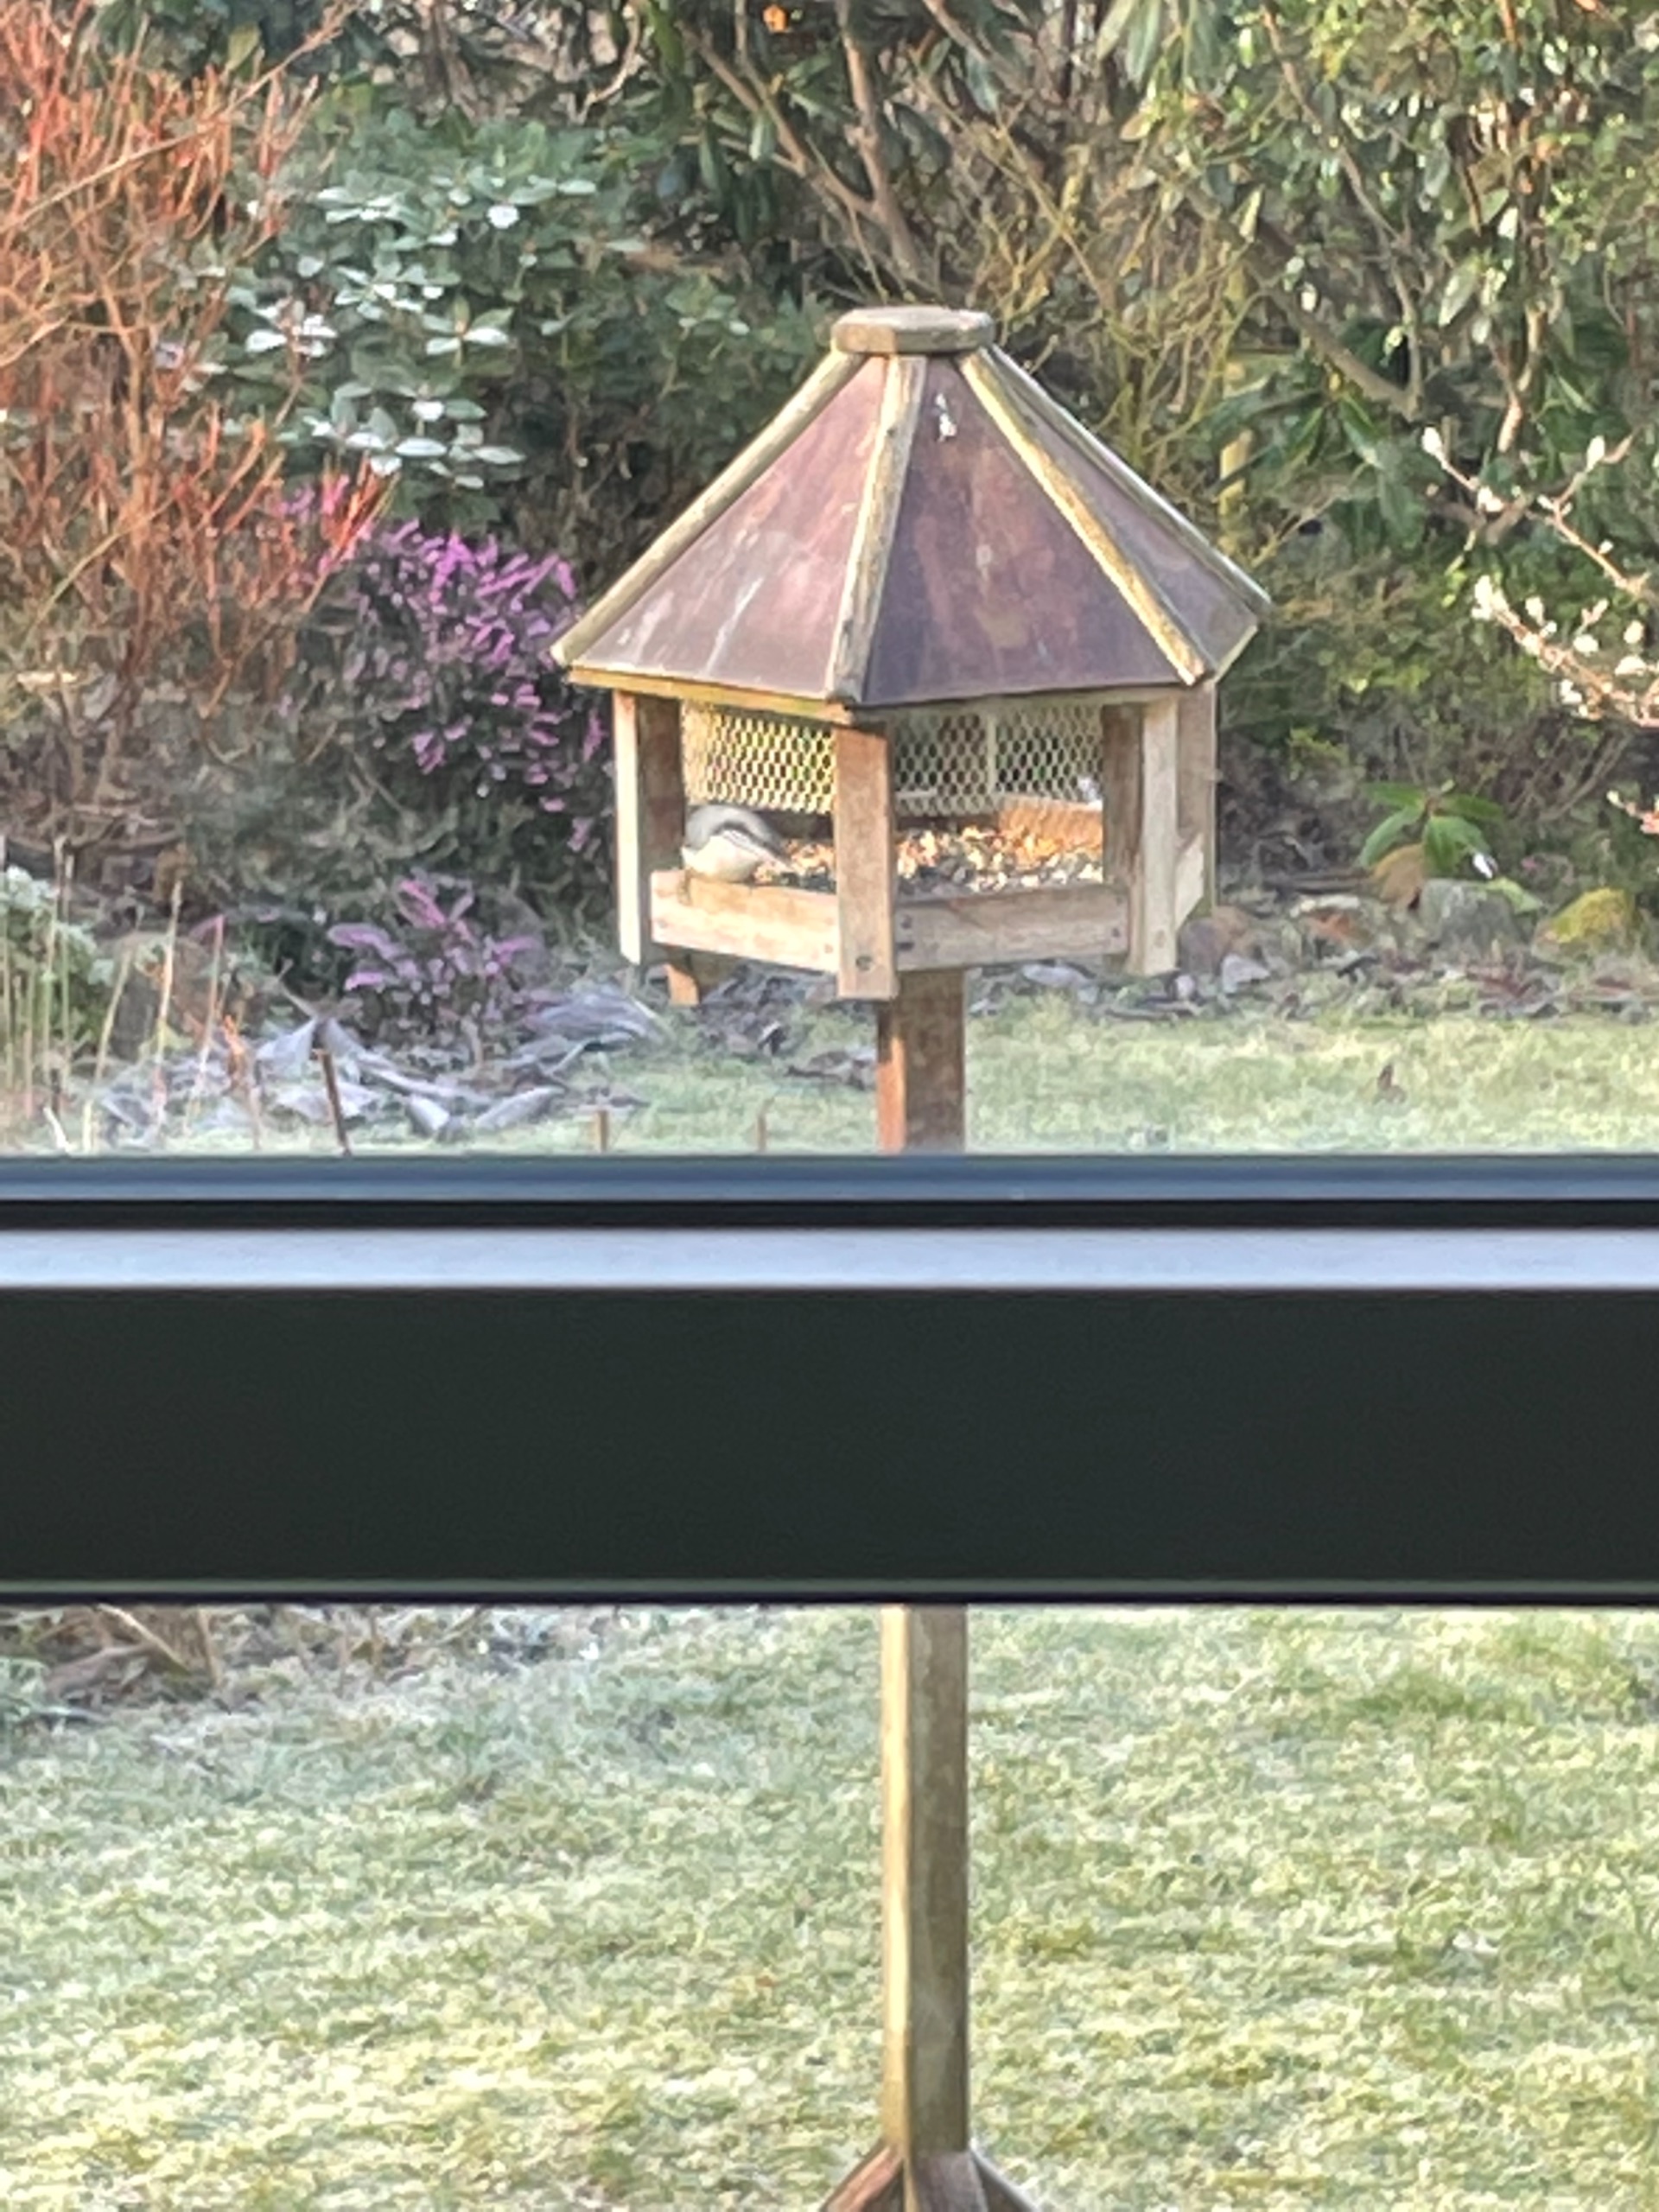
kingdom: Animalia
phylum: Chordata
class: Aves
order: Passeriformes
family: Sittidae
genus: Sitta
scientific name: Sitta europaea
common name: Spætmejse
